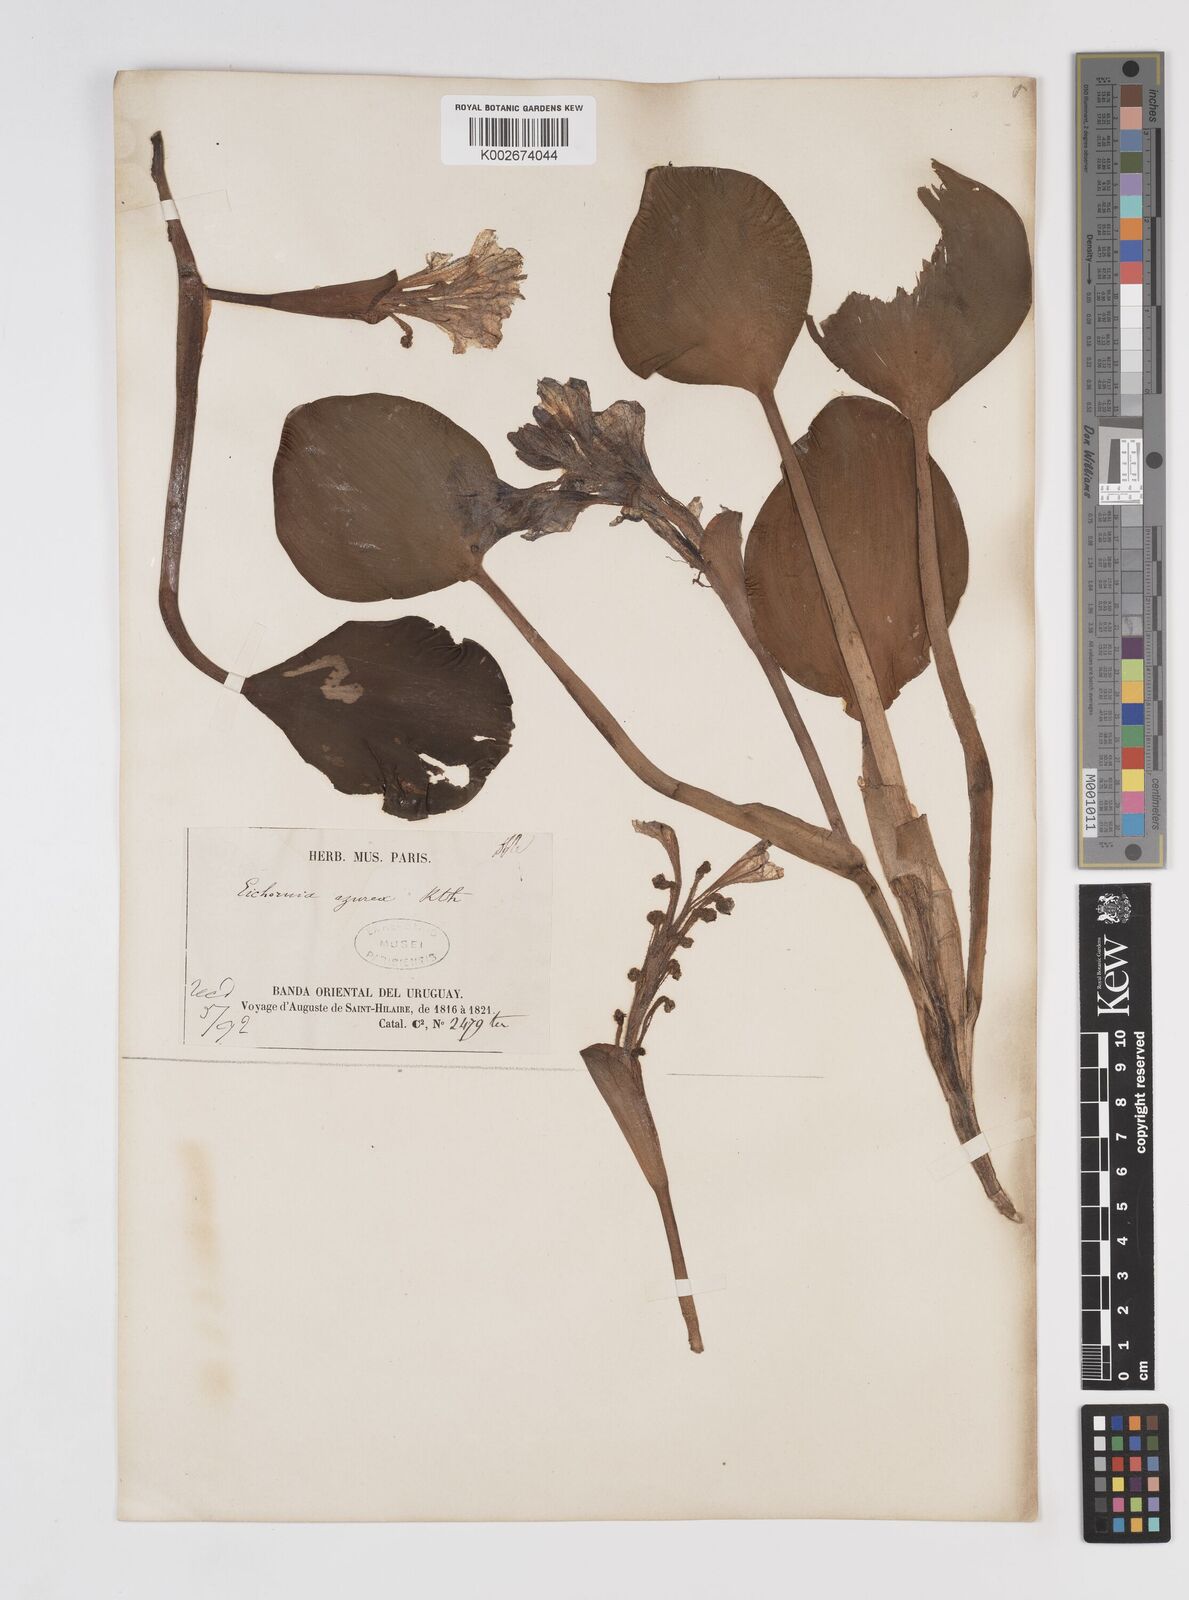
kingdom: Plantae
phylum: Tracheophyta
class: Liliopsida
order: Commelinales
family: Pontederiaceae
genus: Pontederia
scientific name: Pontederia azurea
